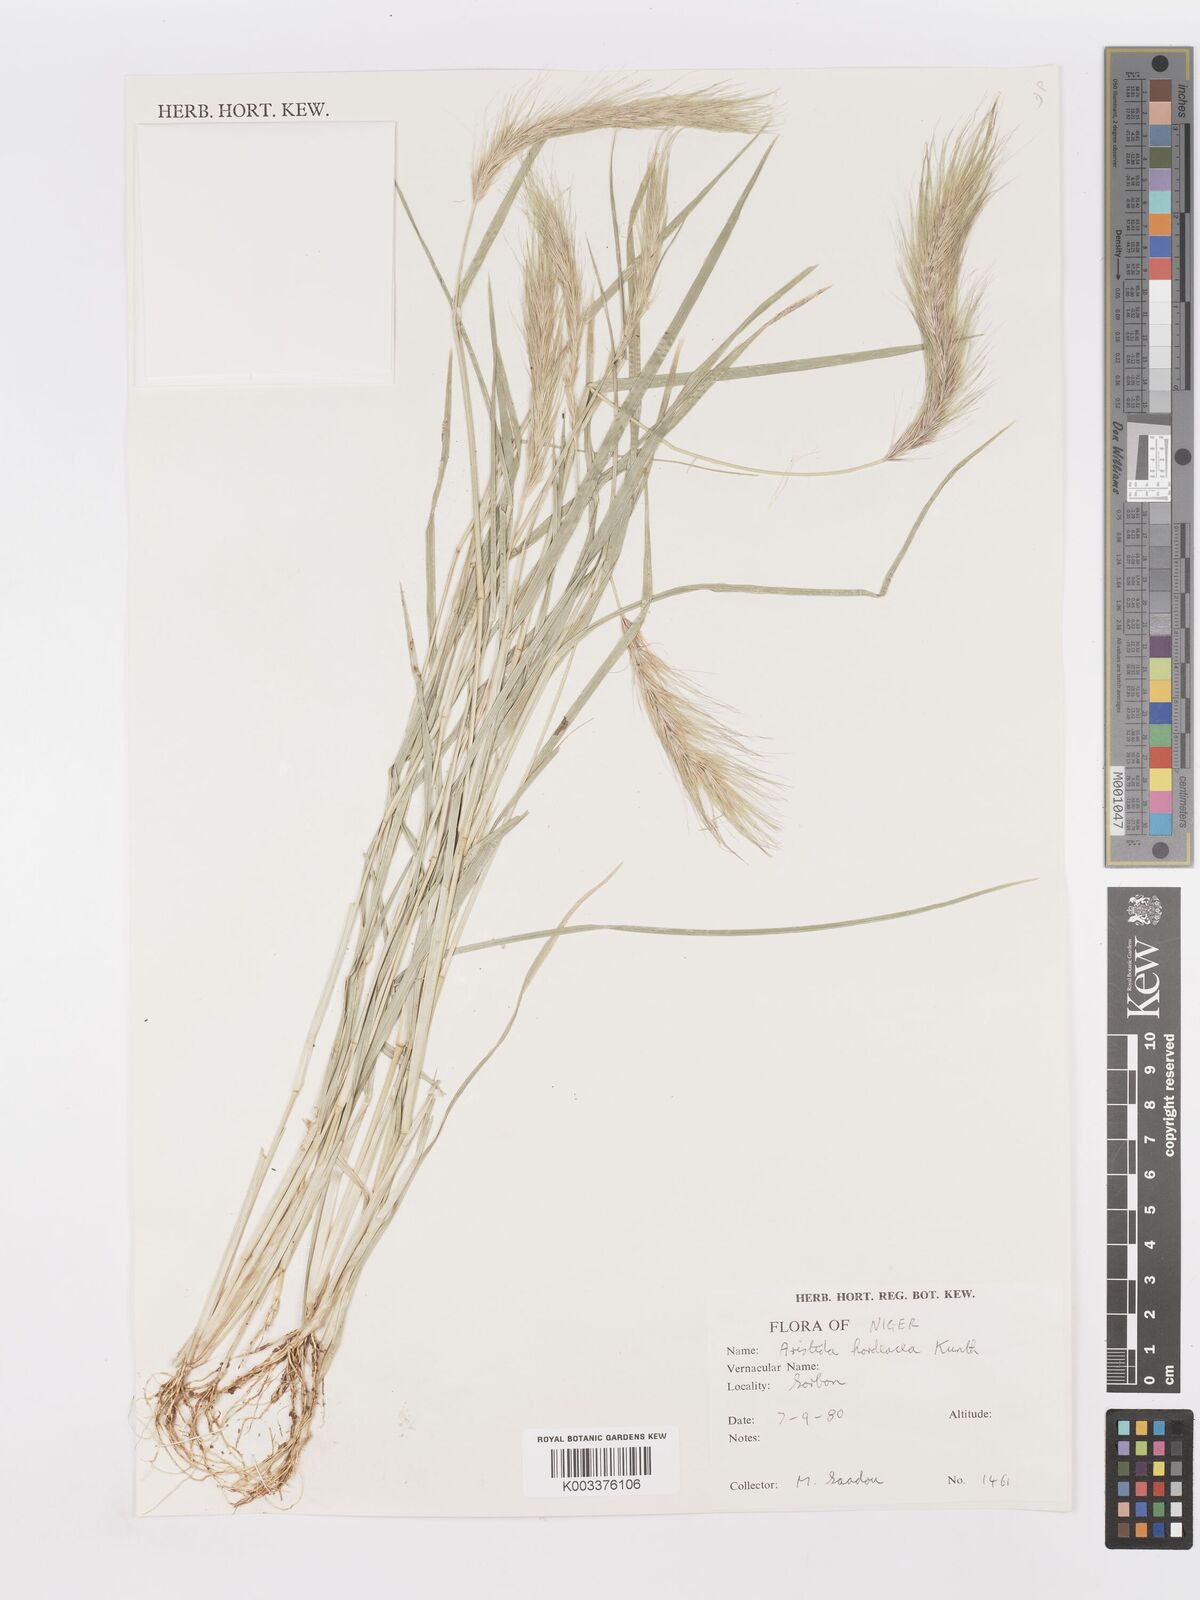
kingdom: Plantae
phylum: Tracheophyta
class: Liliopsida
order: Poales
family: Poaceae
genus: Aristida
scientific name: Aristida hordeacea
